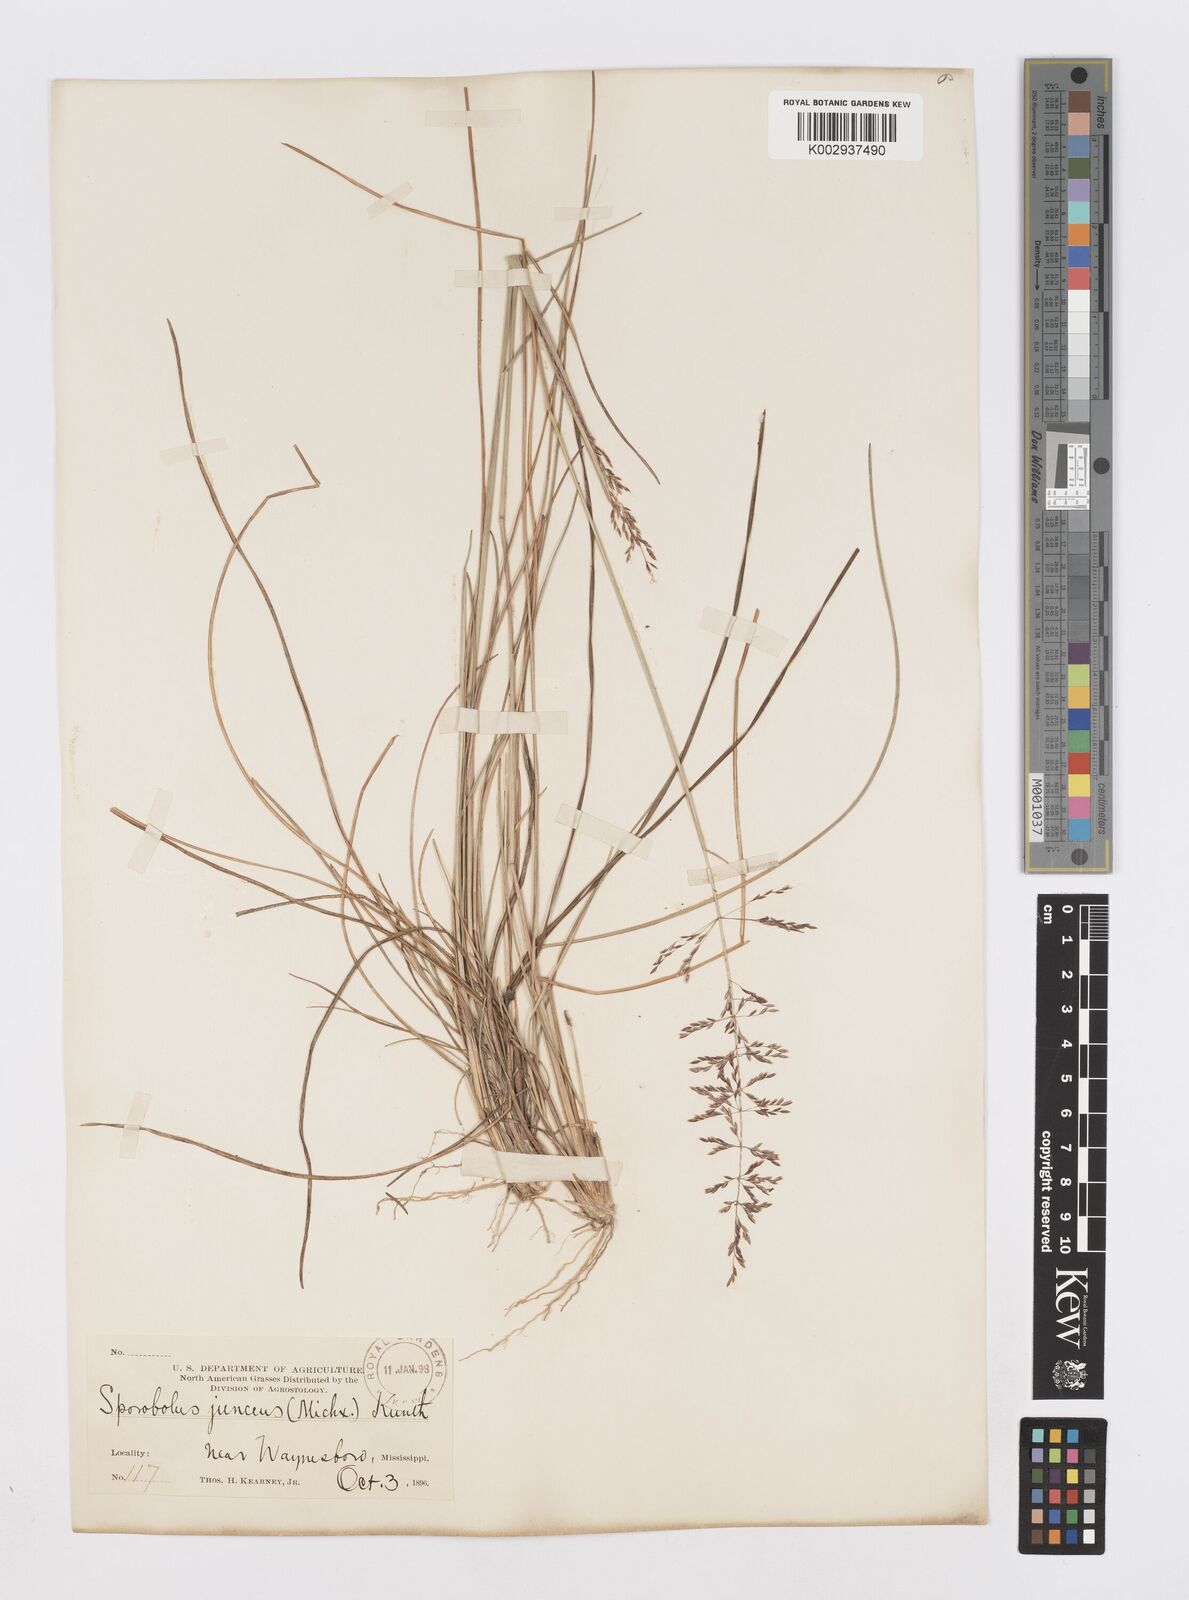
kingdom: Plantae
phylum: Tracheophyta
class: Liliopsida
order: Poales
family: Poaceae
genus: Sporobolus
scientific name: Sporobolus junceus
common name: Lizard grass
